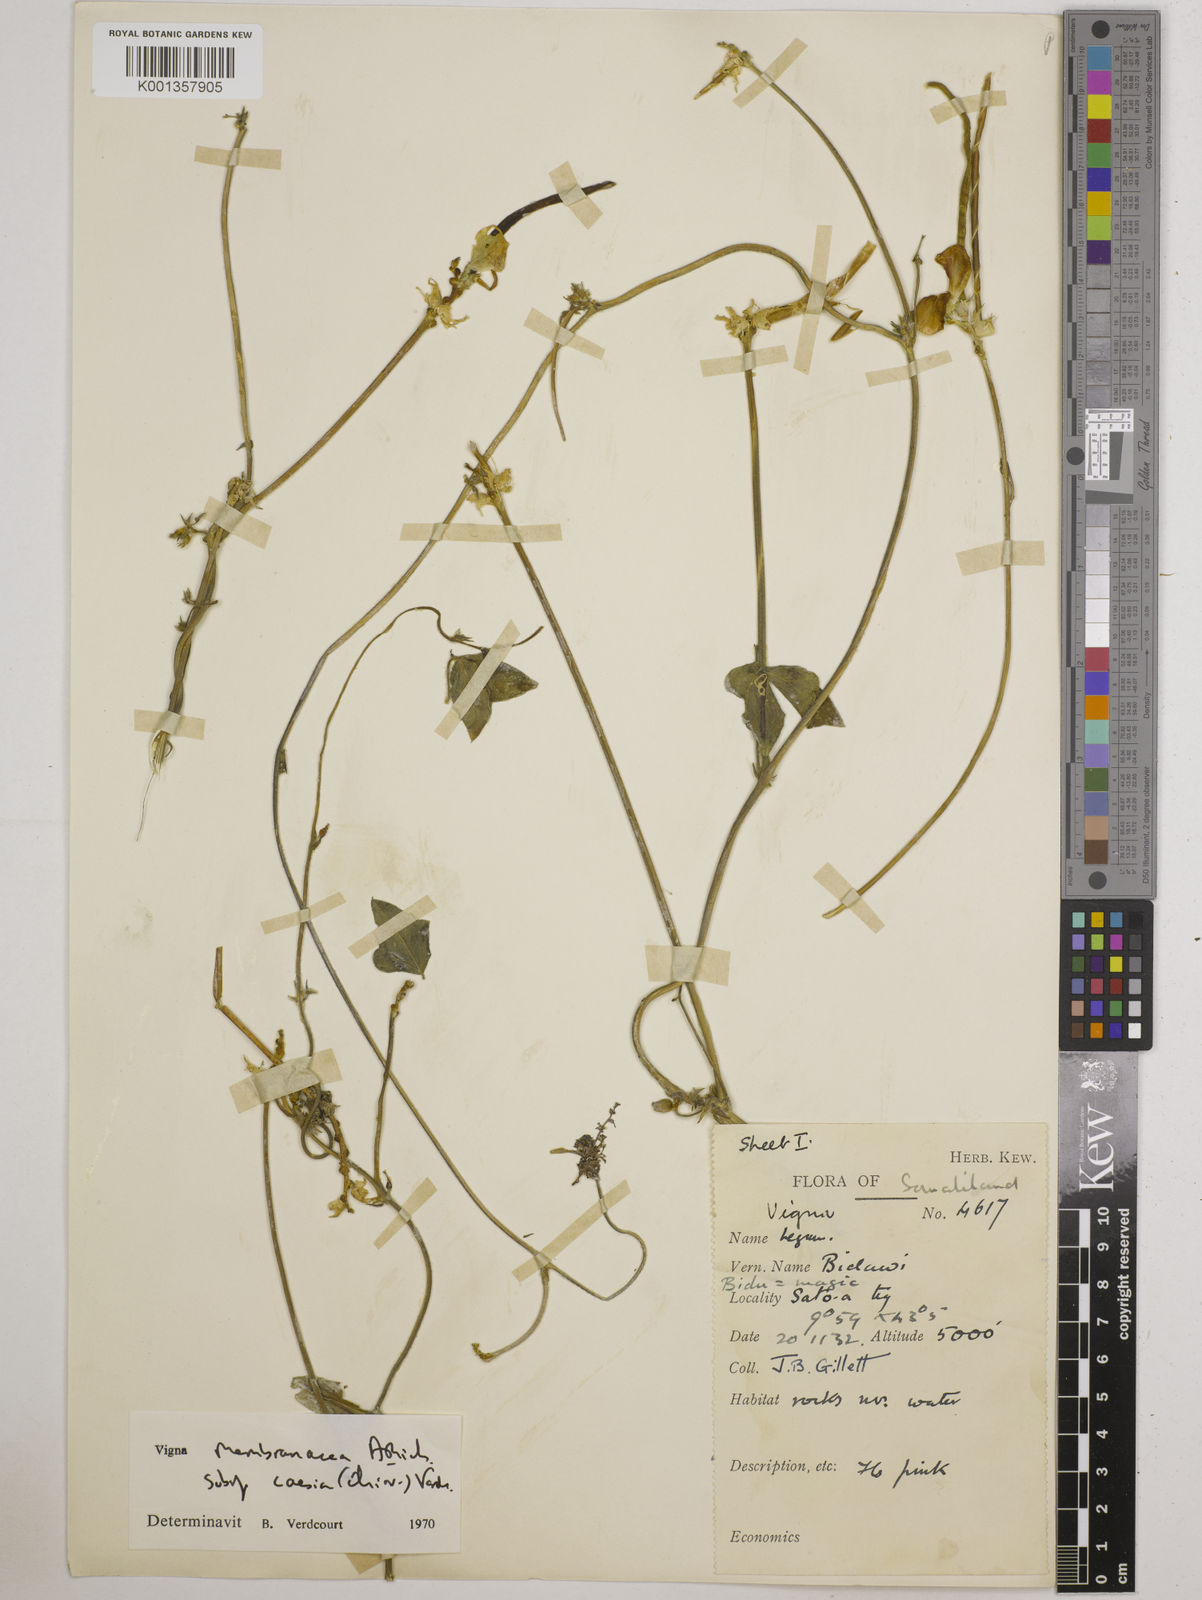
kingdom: Plantae
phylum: Tracheophyta
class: Magnoliopsida
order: Fabales
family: Fabaceae
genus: Vigna
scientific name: Vigna
